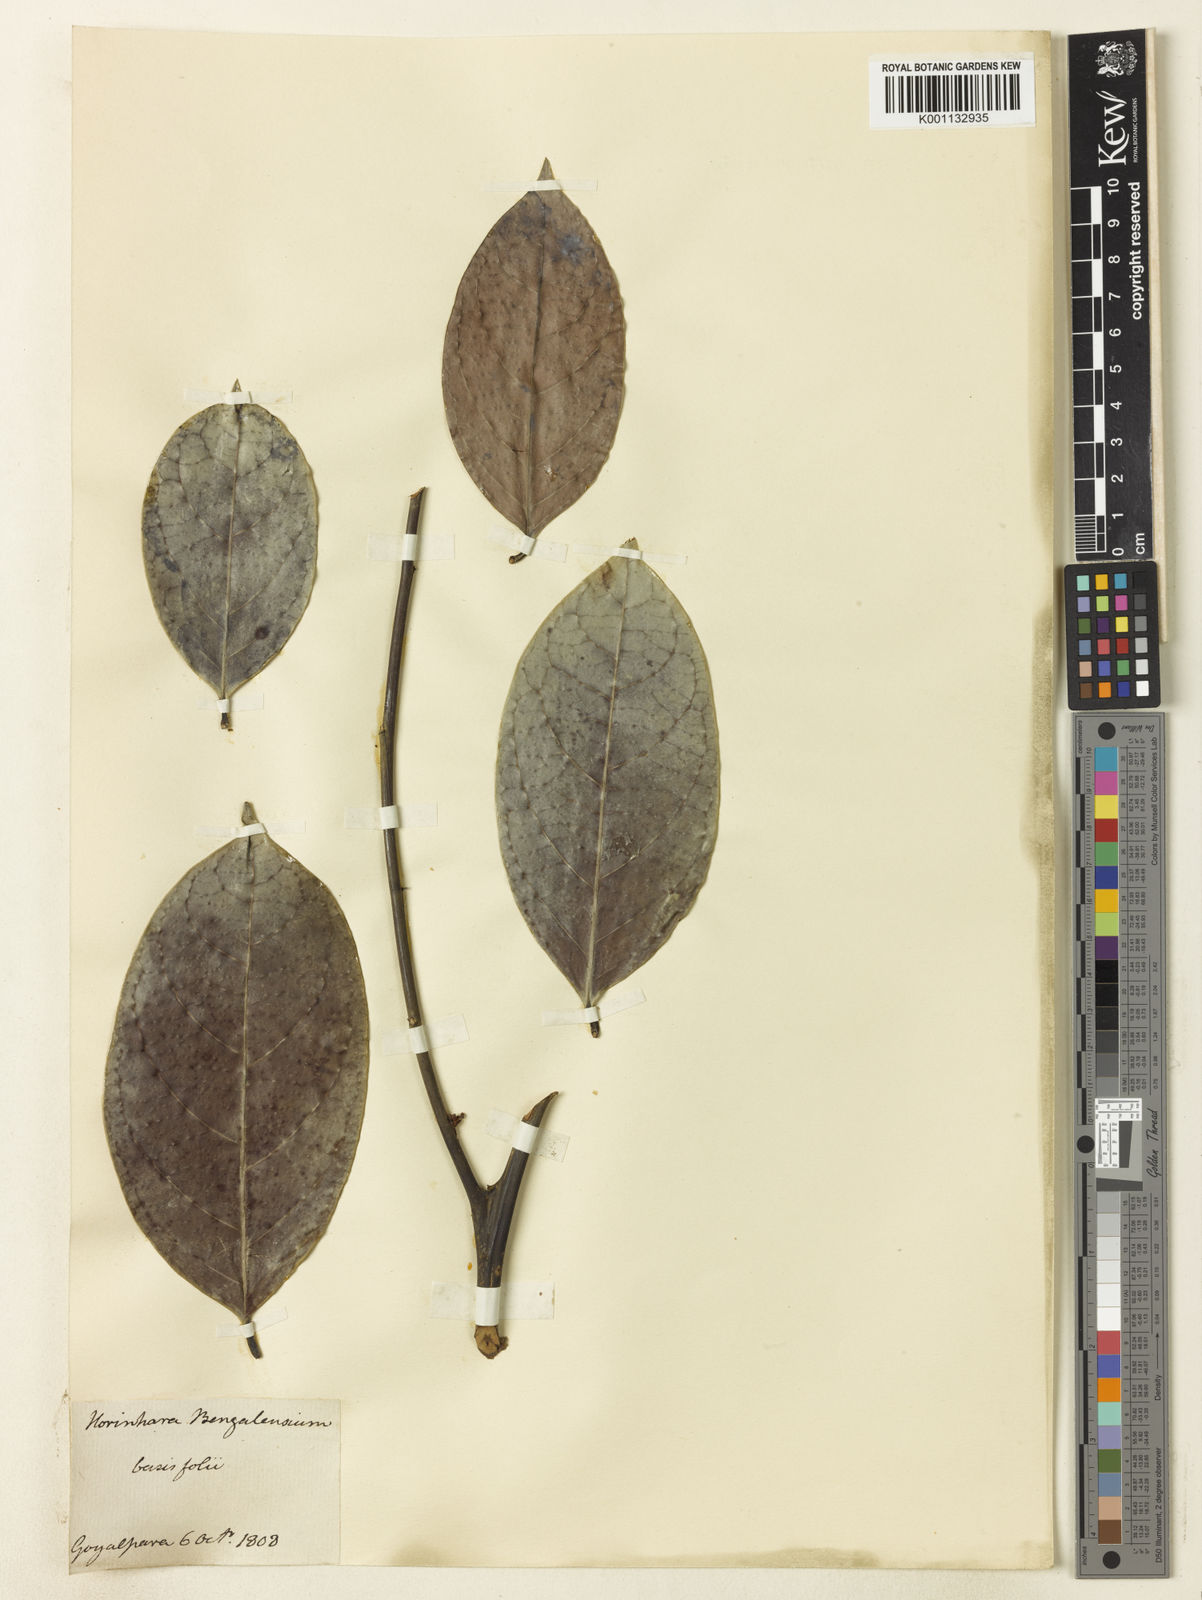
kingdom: Plantae
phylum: Tracheophyta
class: Magnoliopsida
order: Malpighiales
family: Phyllanthaceae
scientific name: Phyllanthaceae
